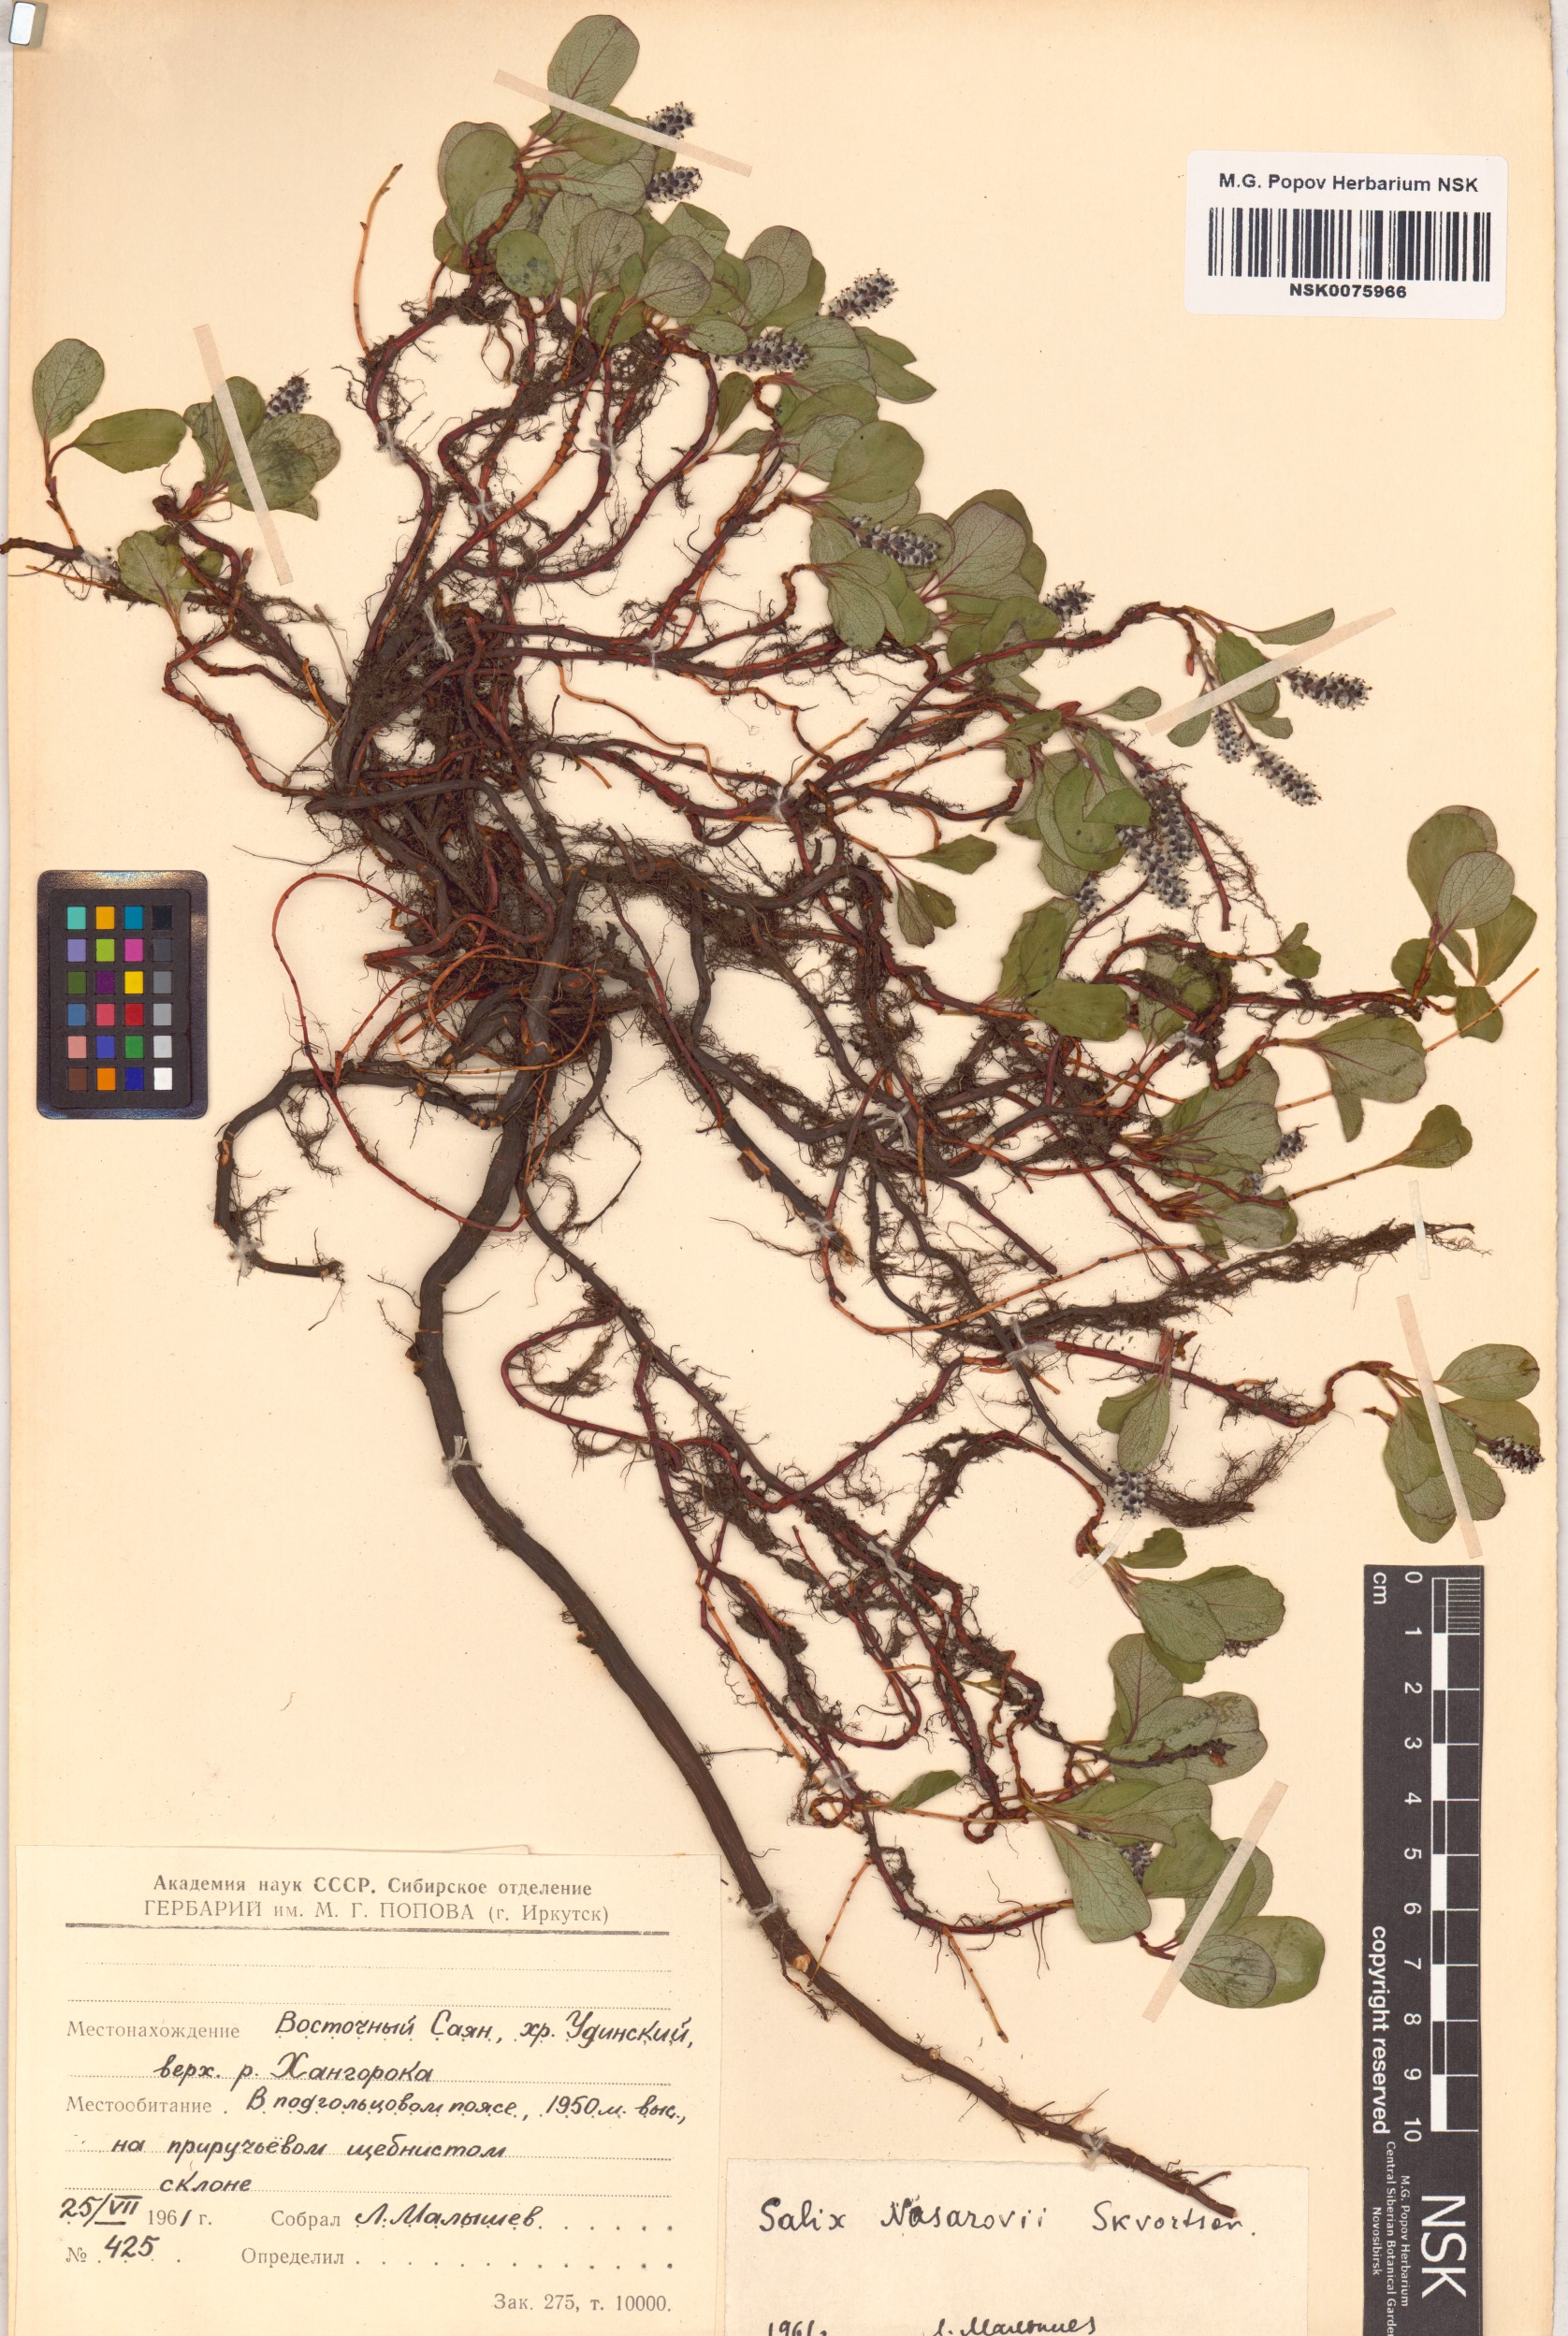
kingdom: Plantae
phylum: Tracheophyta
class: Magnoliopsida
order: Malpighiales
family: Salicaceae
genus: Salix
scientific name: Salix nasarovii
